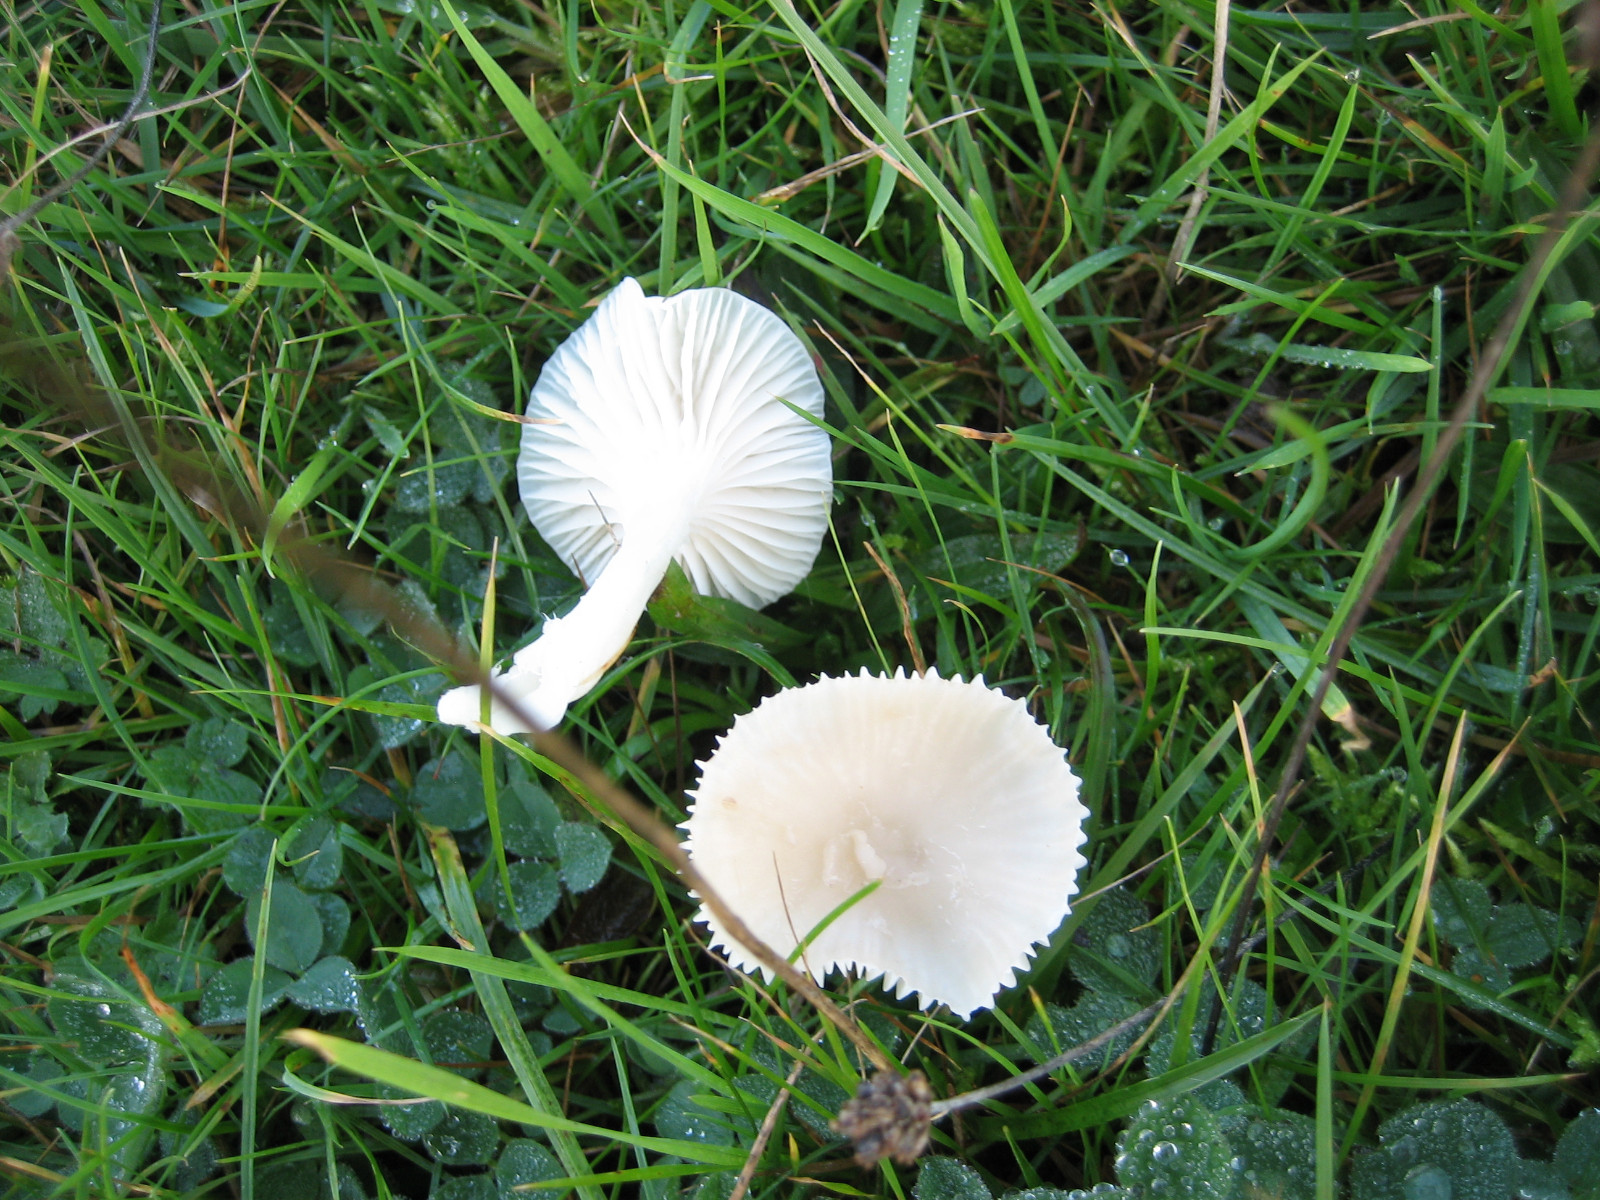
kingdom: Fungi
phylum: Basidiomycota
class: Agaricomycetes
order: Agaricales
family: Hygrophoraceae
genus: Cuphophyllus
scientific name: Cuphophyllus virgineus
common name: snehvid vokshat
